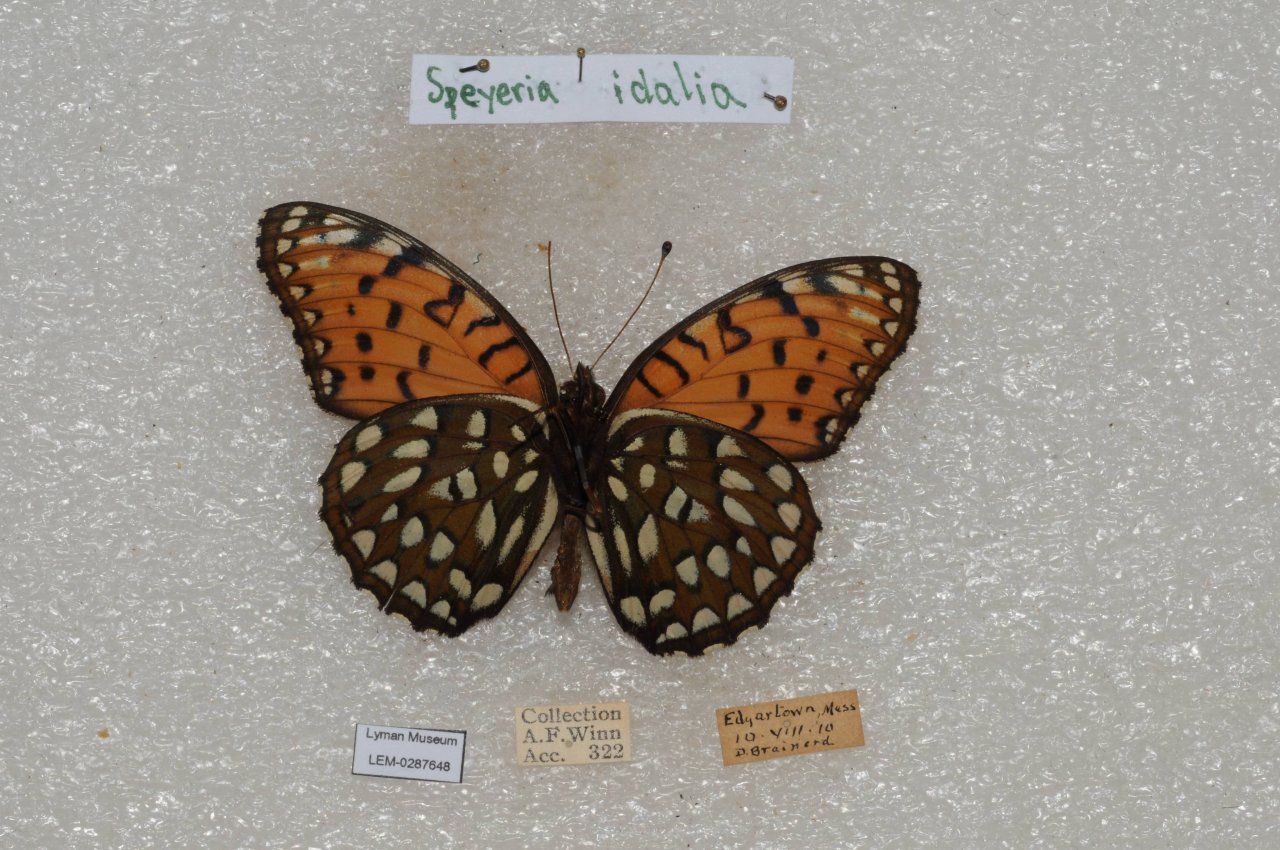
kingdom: Animalia
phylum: Arthropoda
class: Insecta
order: Lepidoptera
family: Nymphalidae
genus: Speyeria
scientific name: Speyeria idalia
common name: Regal Fritillary
